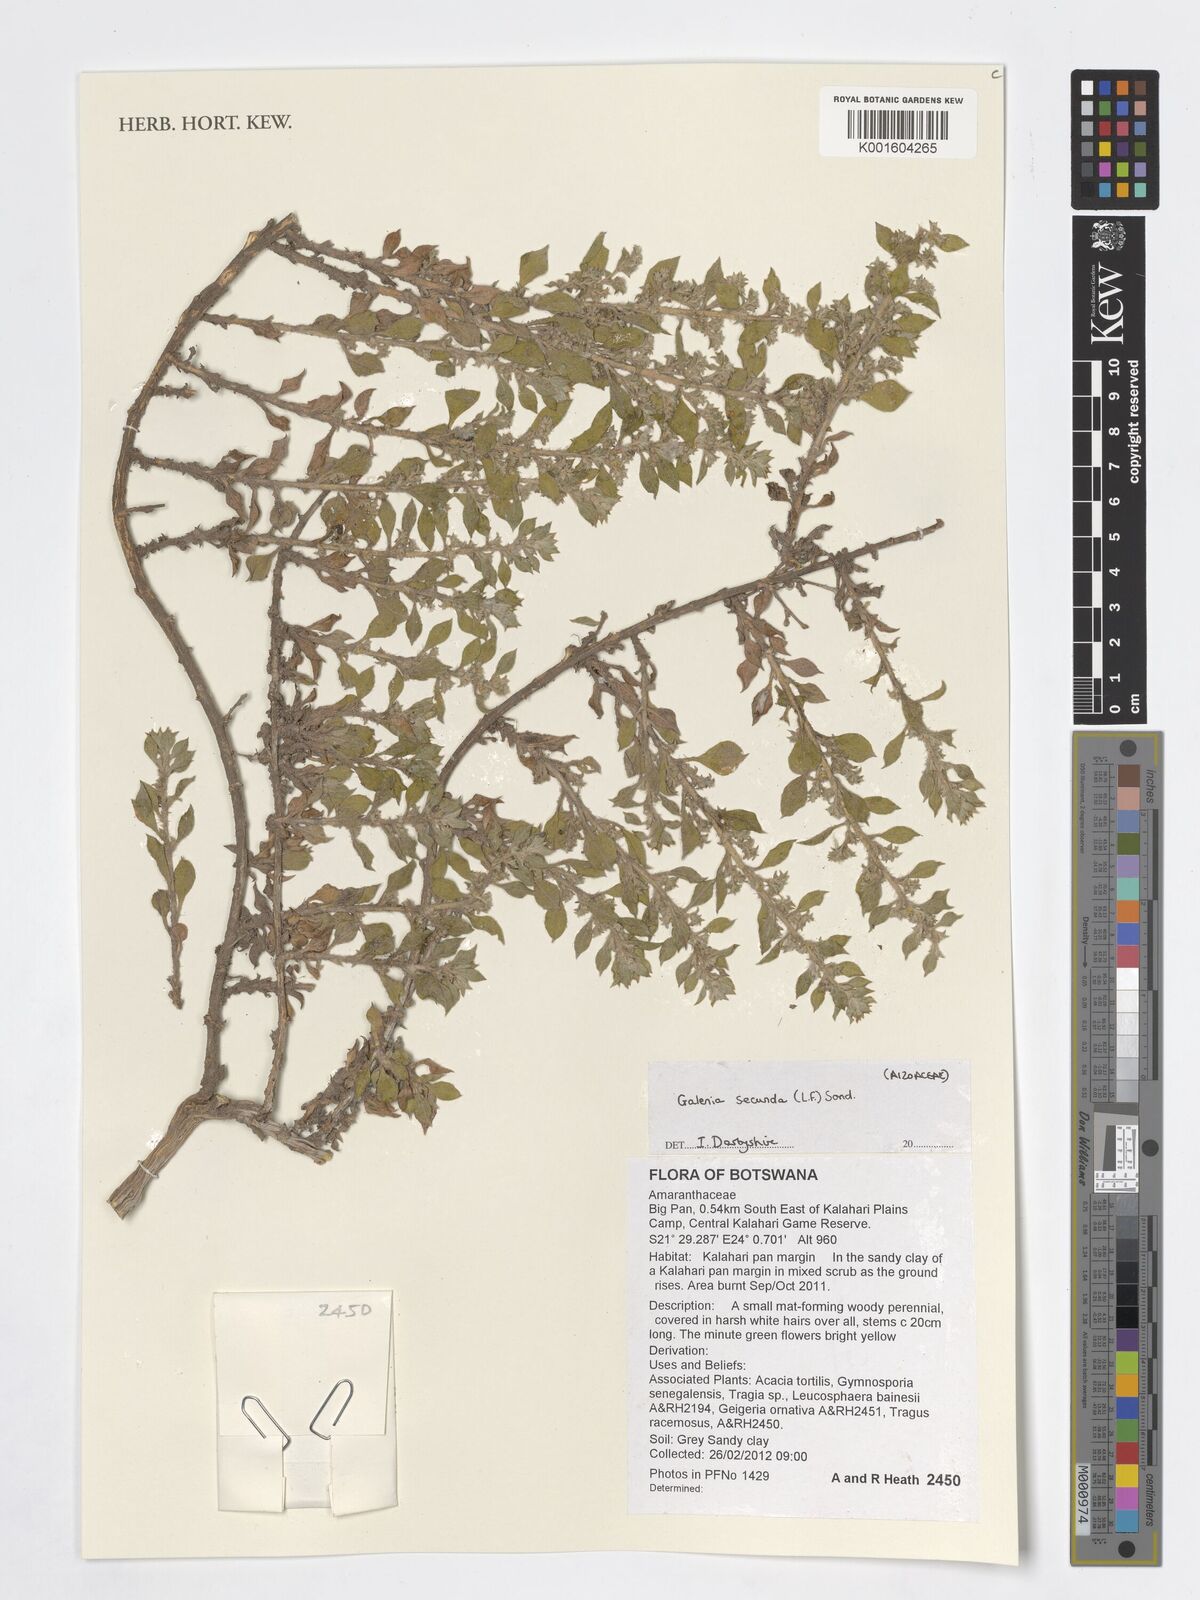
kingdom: Plantae
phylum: Tracheophyta
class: Magnoliopsida
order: Caryophyllales
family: Aizoaceae
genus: Aizoon
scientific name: Aizoon secundum
